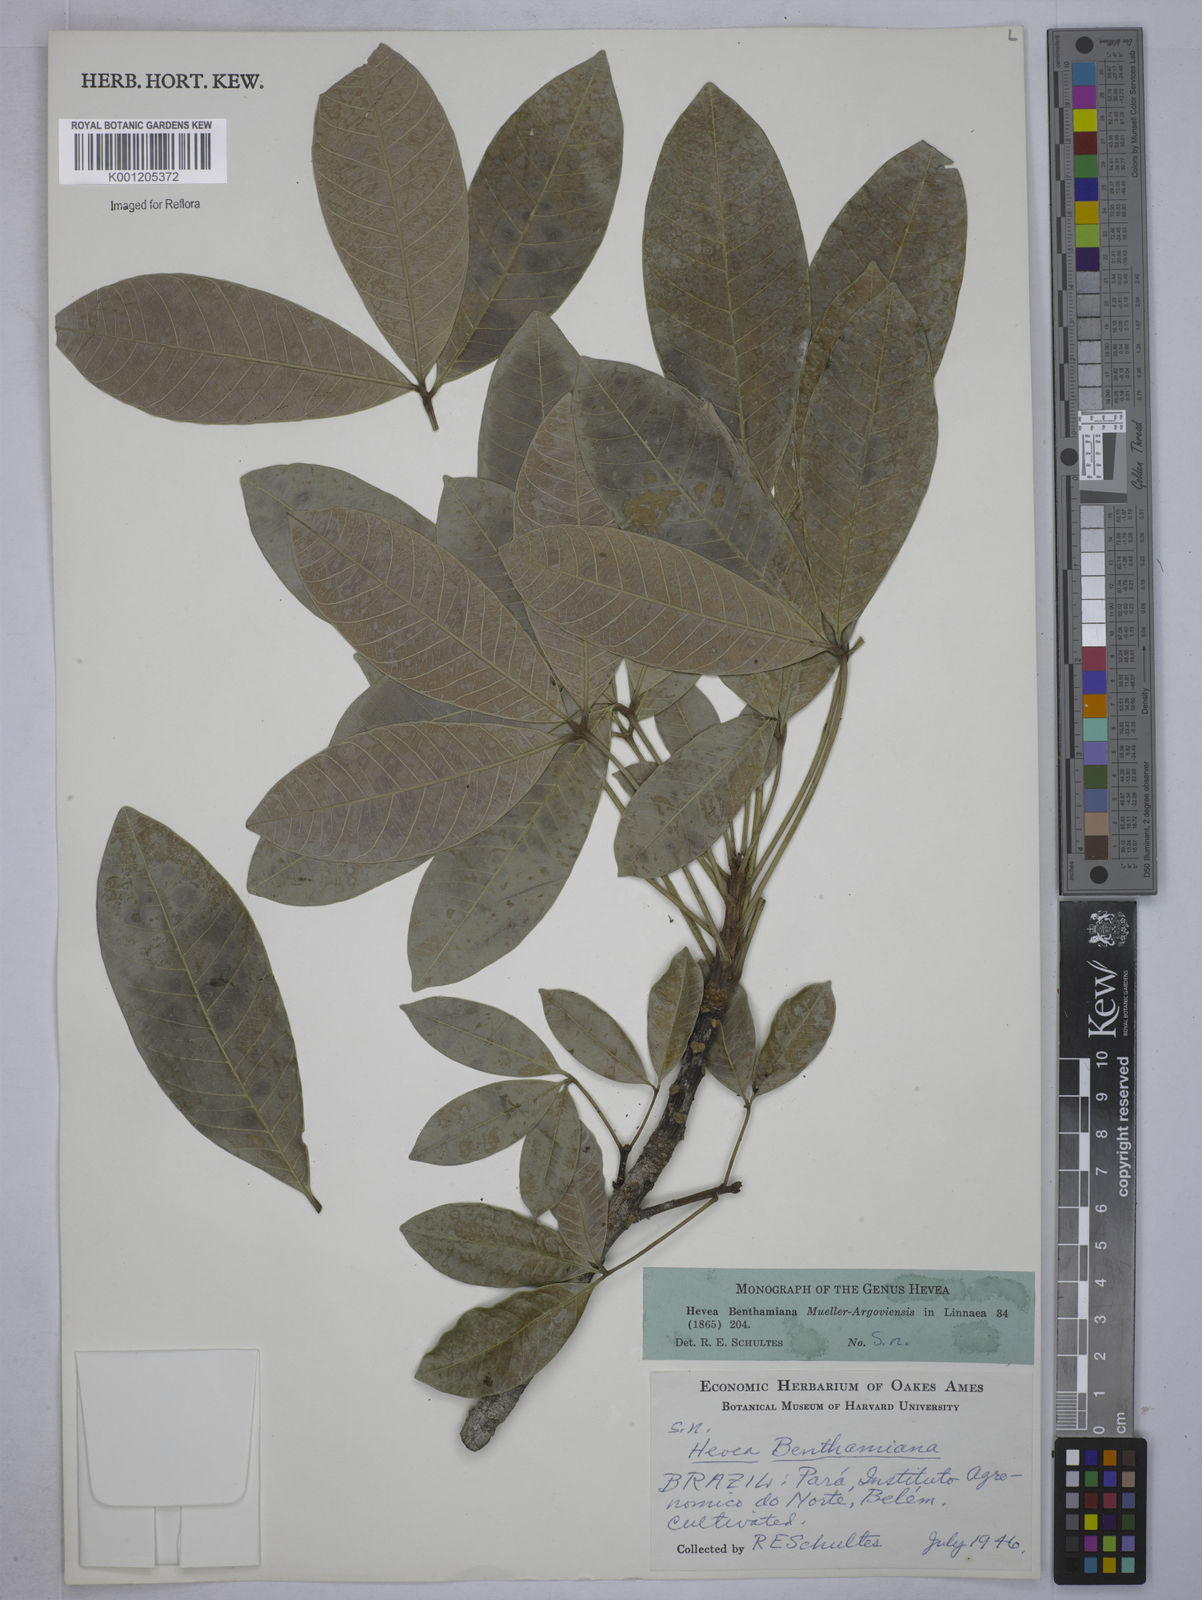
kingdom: Plantae
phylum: Tracheophyta
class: Magnoliopsida
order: Malpighiales
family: Euphorbiaceae
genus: Hevea
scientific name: Hevea
